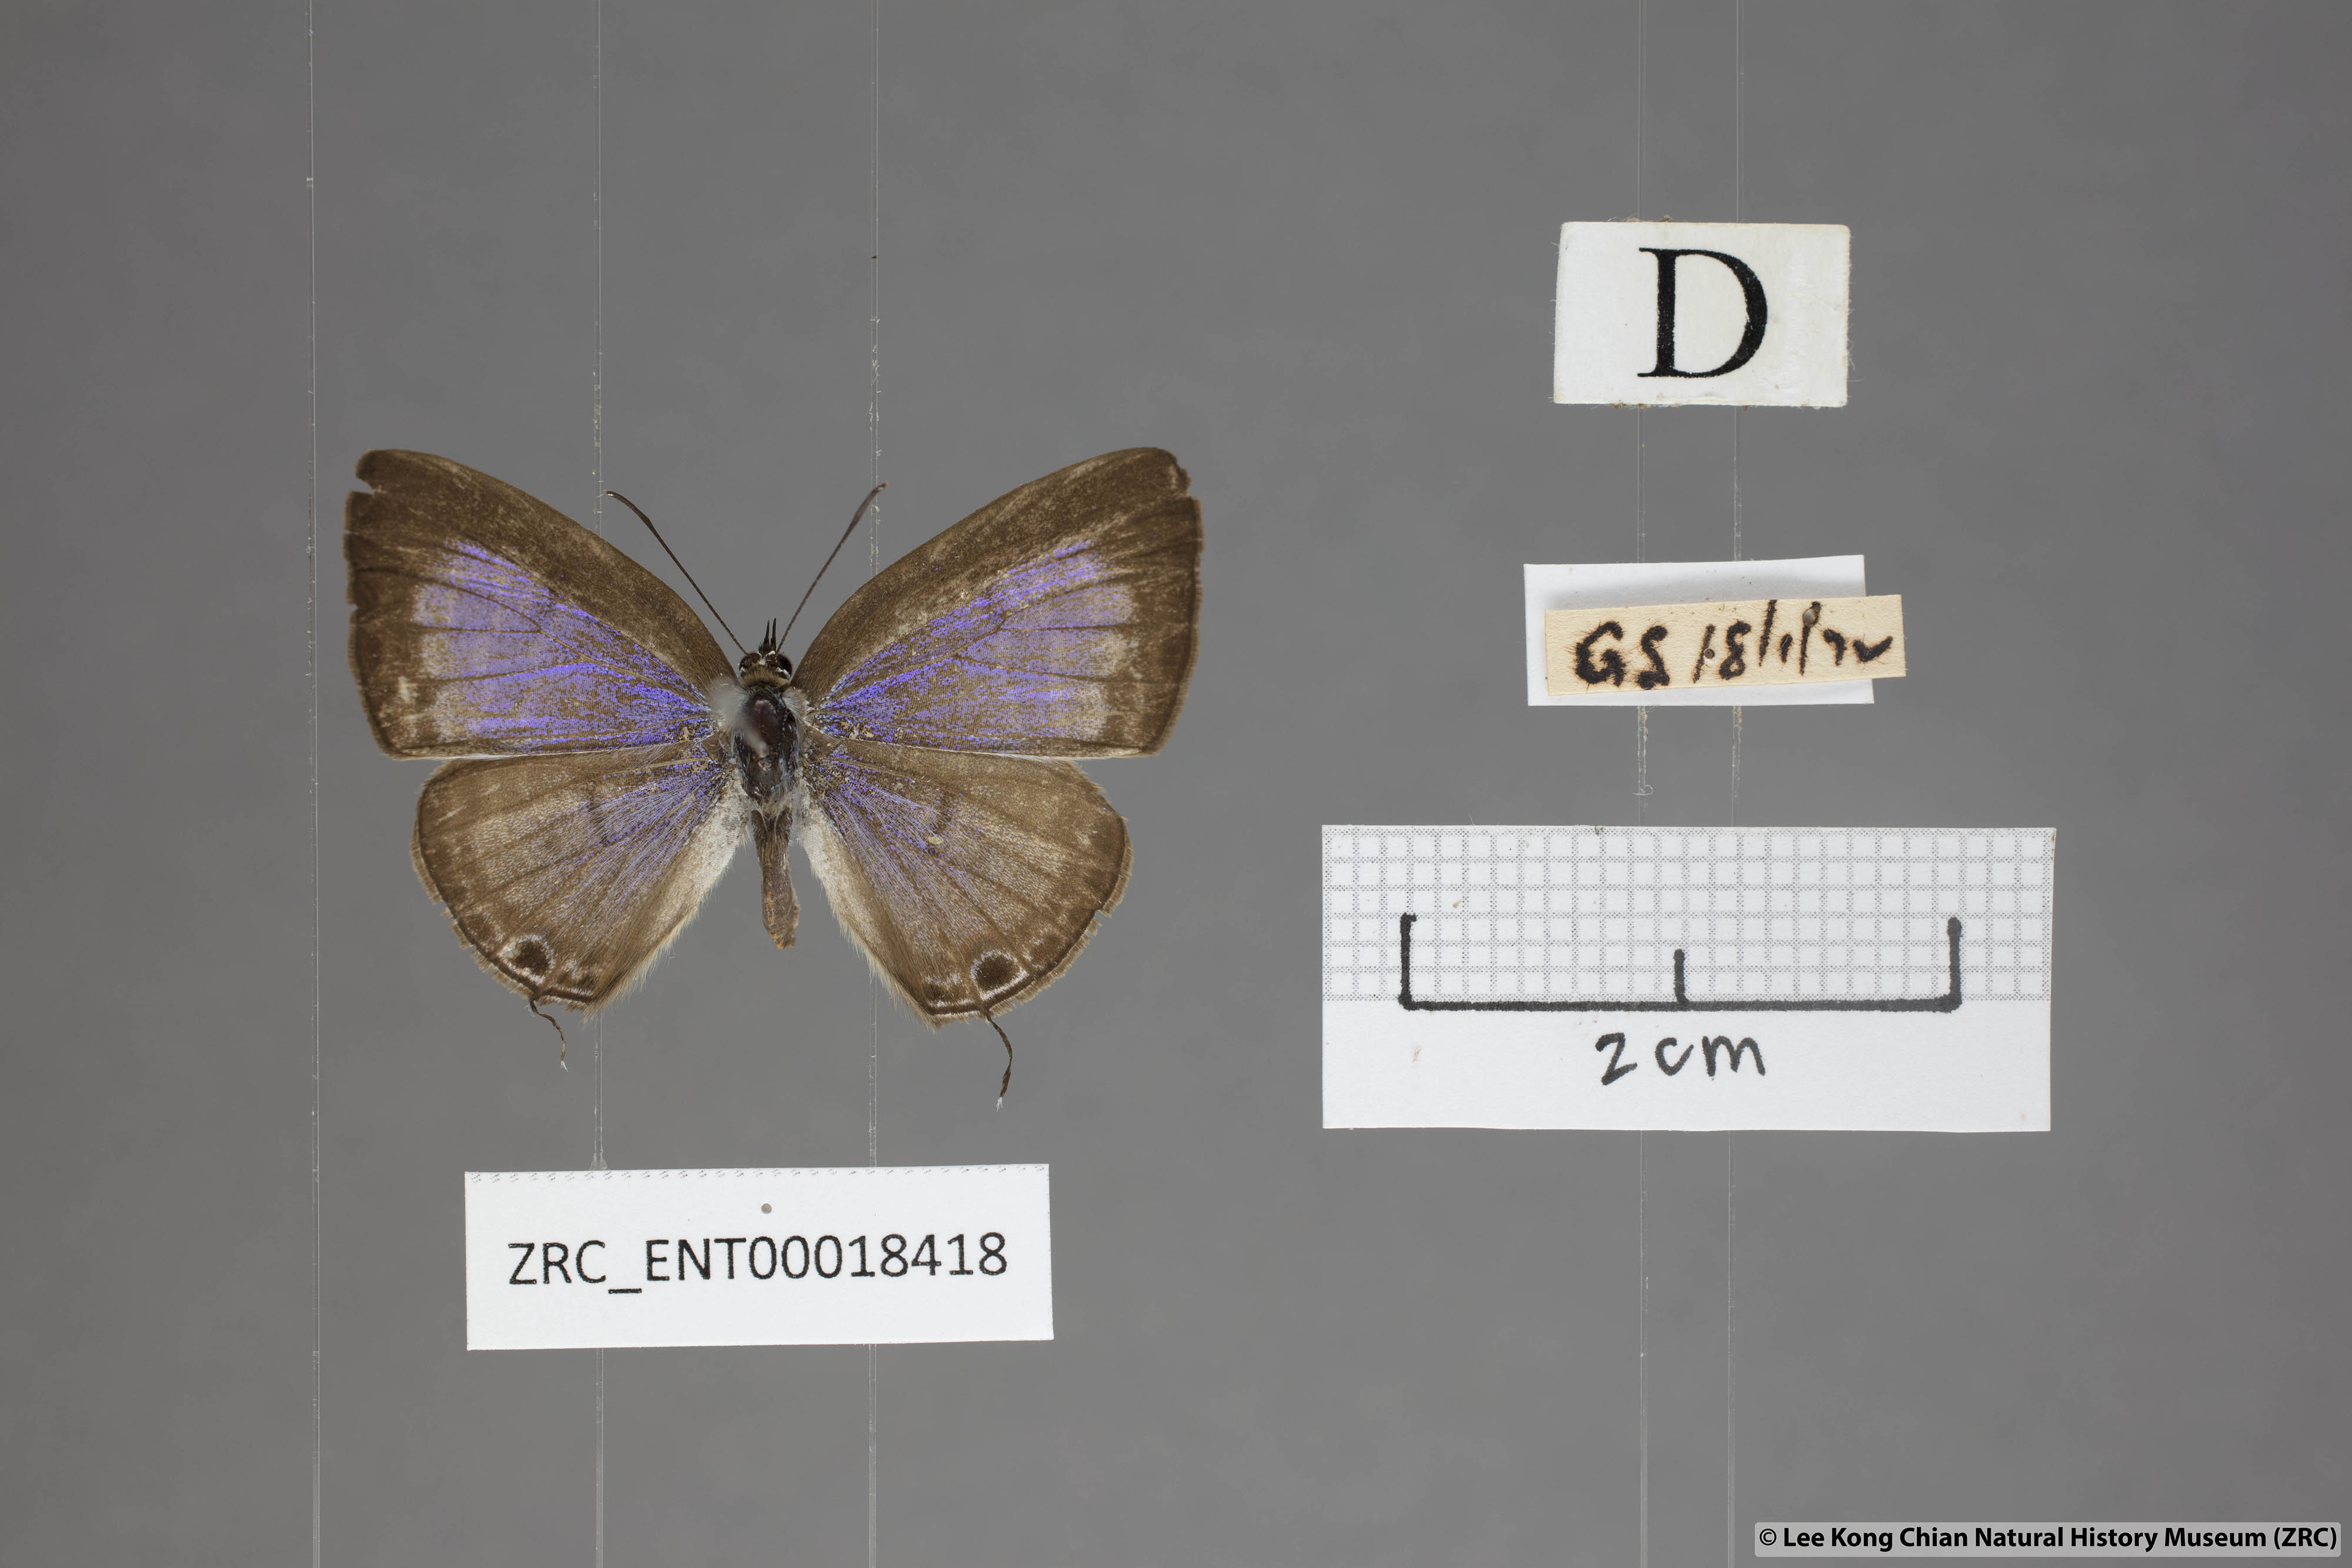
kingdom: Animalia
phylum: Arthropoda
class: Insecta
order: Lepidoptera
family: Lycaenidae
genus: Nacaduba
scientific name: Nacaduba pactolus
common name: Large fourline blue
